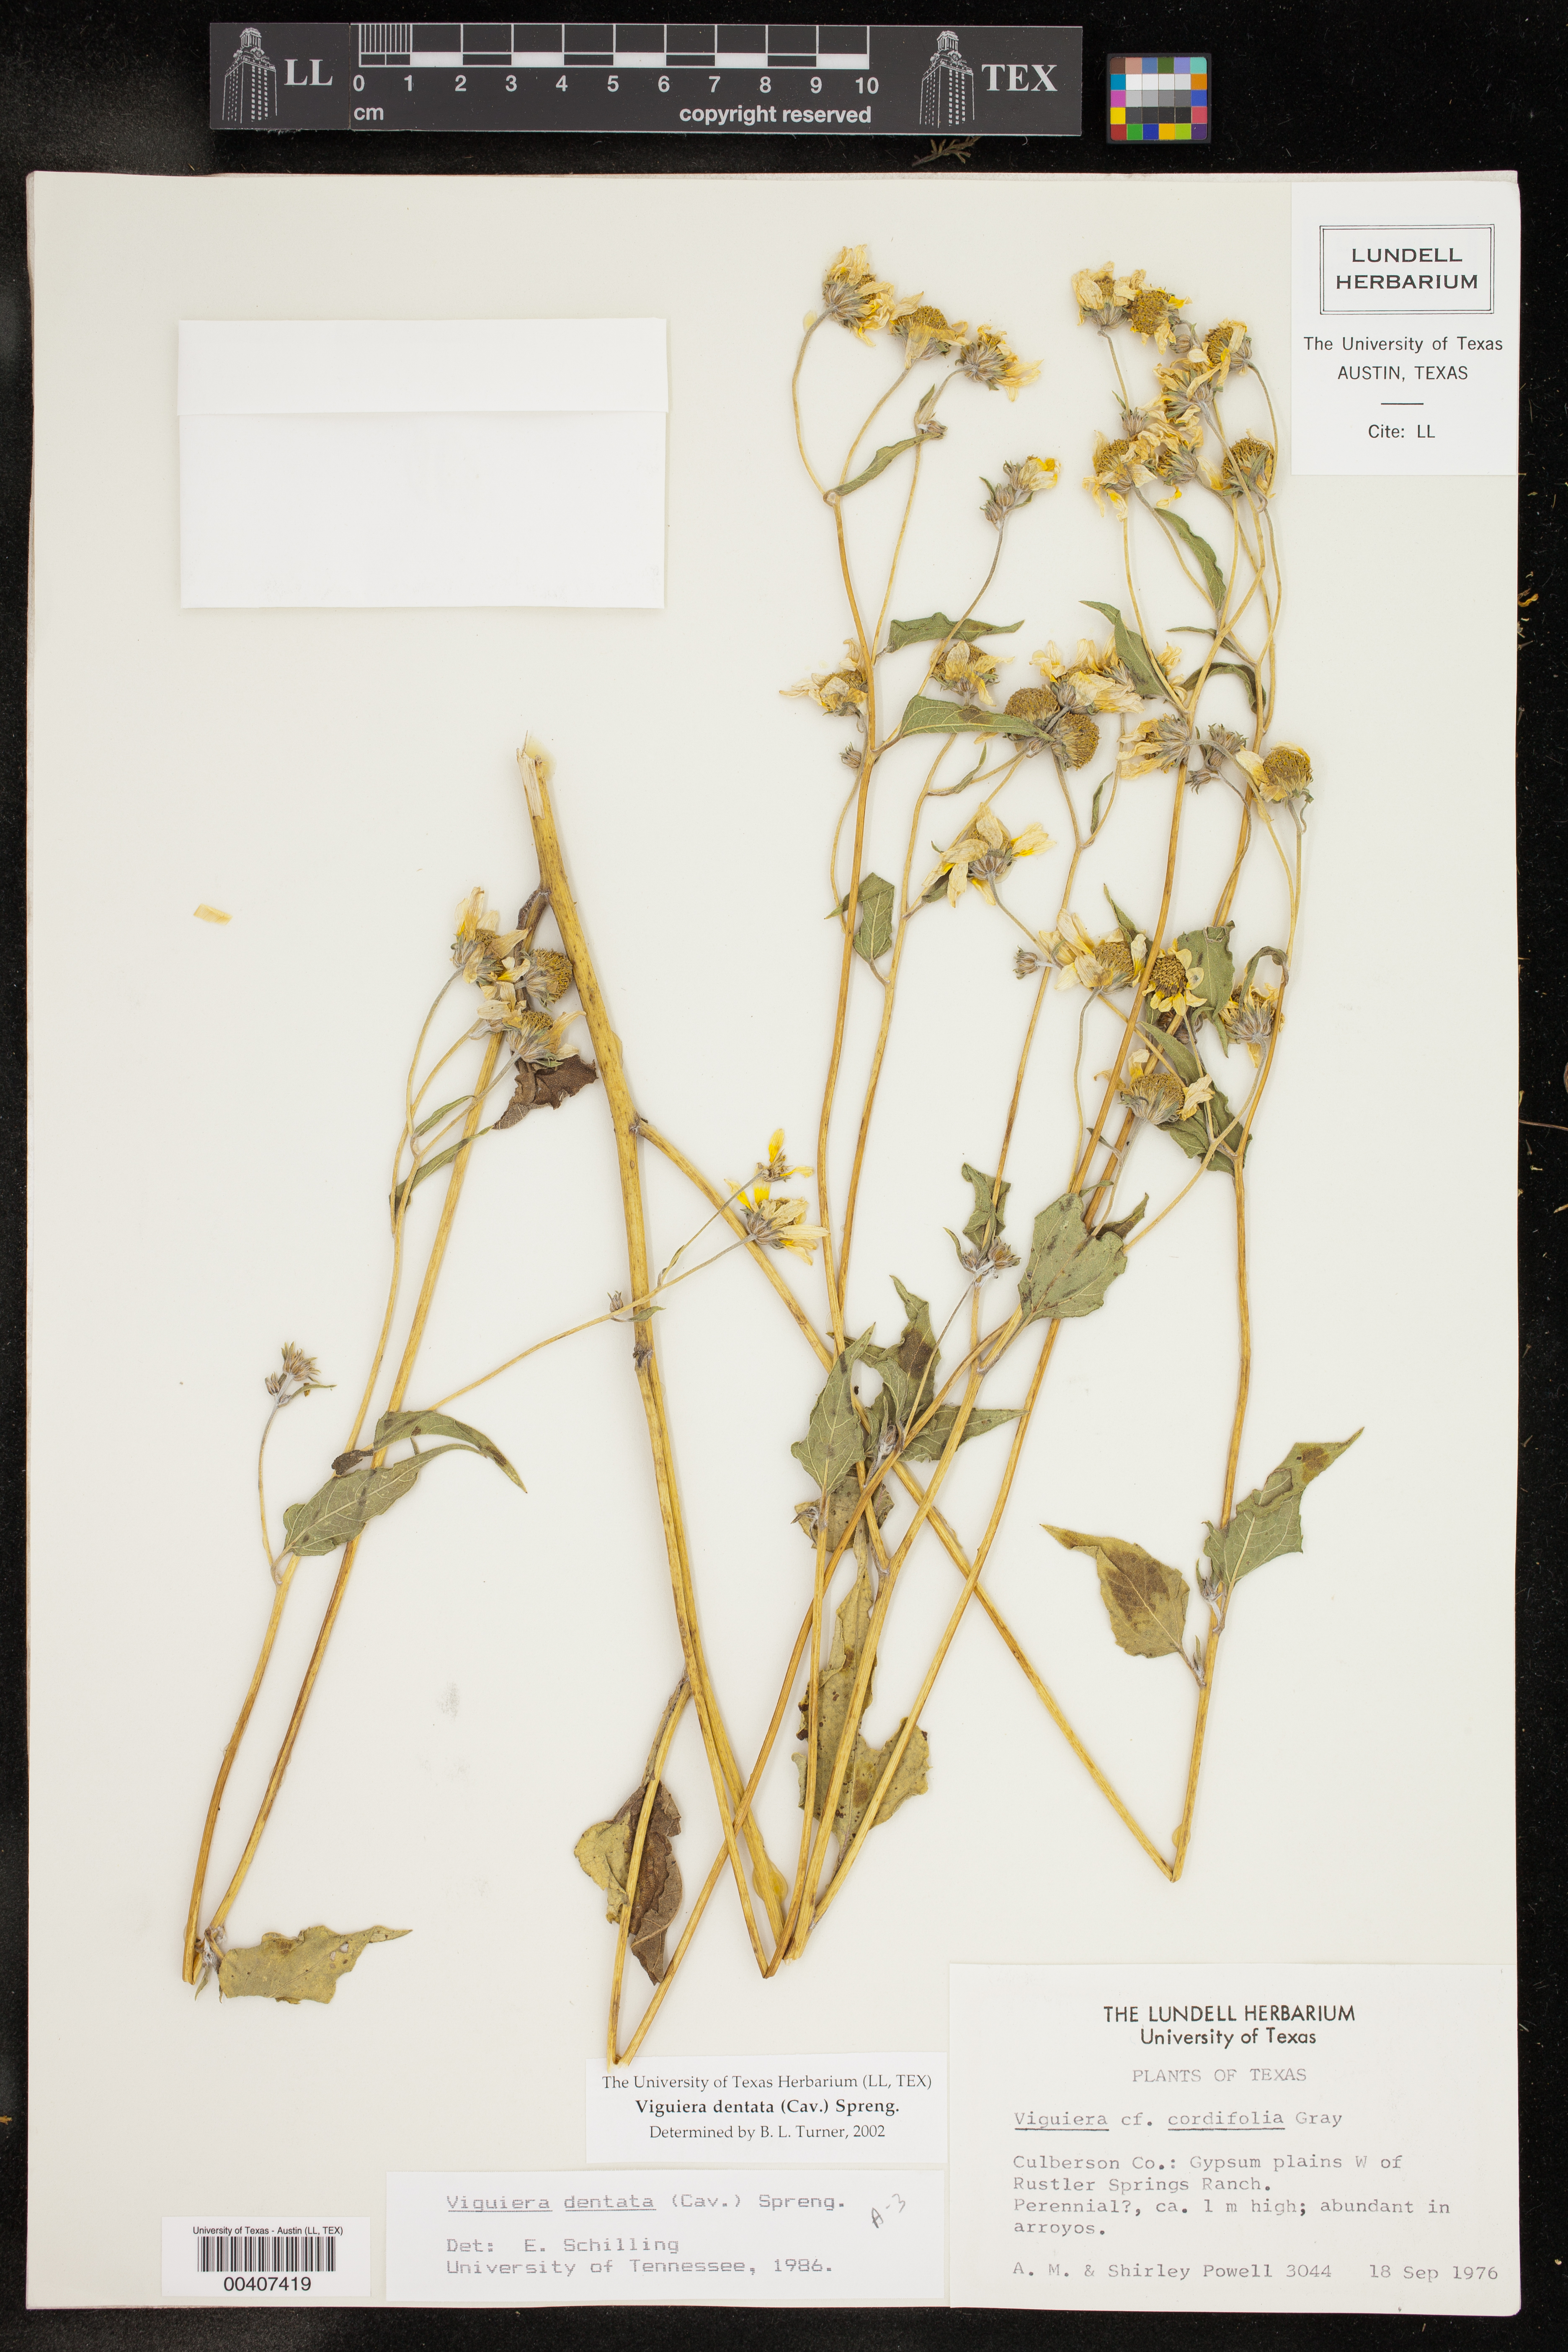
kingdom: Plantae
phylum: Tracheophyta
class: Magnoliopsida
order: Asterales
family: Asteraceae
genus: Viguiera
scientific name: Viguiera dentata
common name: Toothleaf
